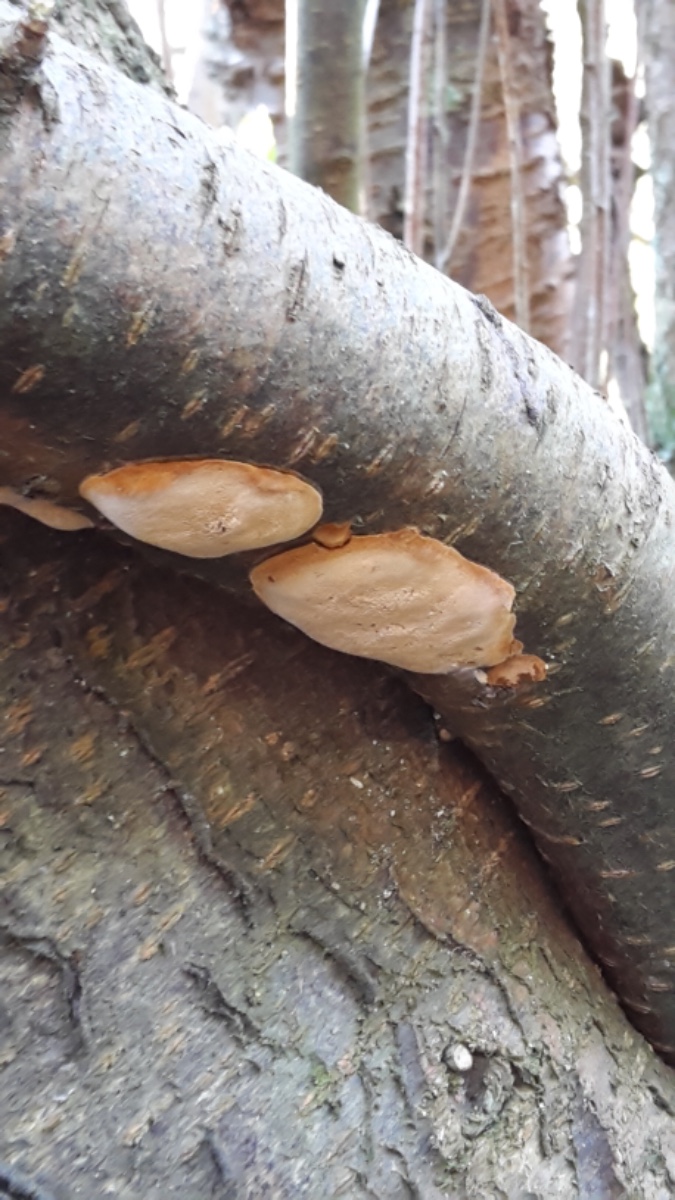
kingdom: Fungi
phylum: Basidiomycota
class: Agaricomycetes
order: Hymenochaetales
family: Hymenochaetaceae
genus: Phellinus
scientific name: Phellinus pomaceus
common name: blomme-ildporesvamp
